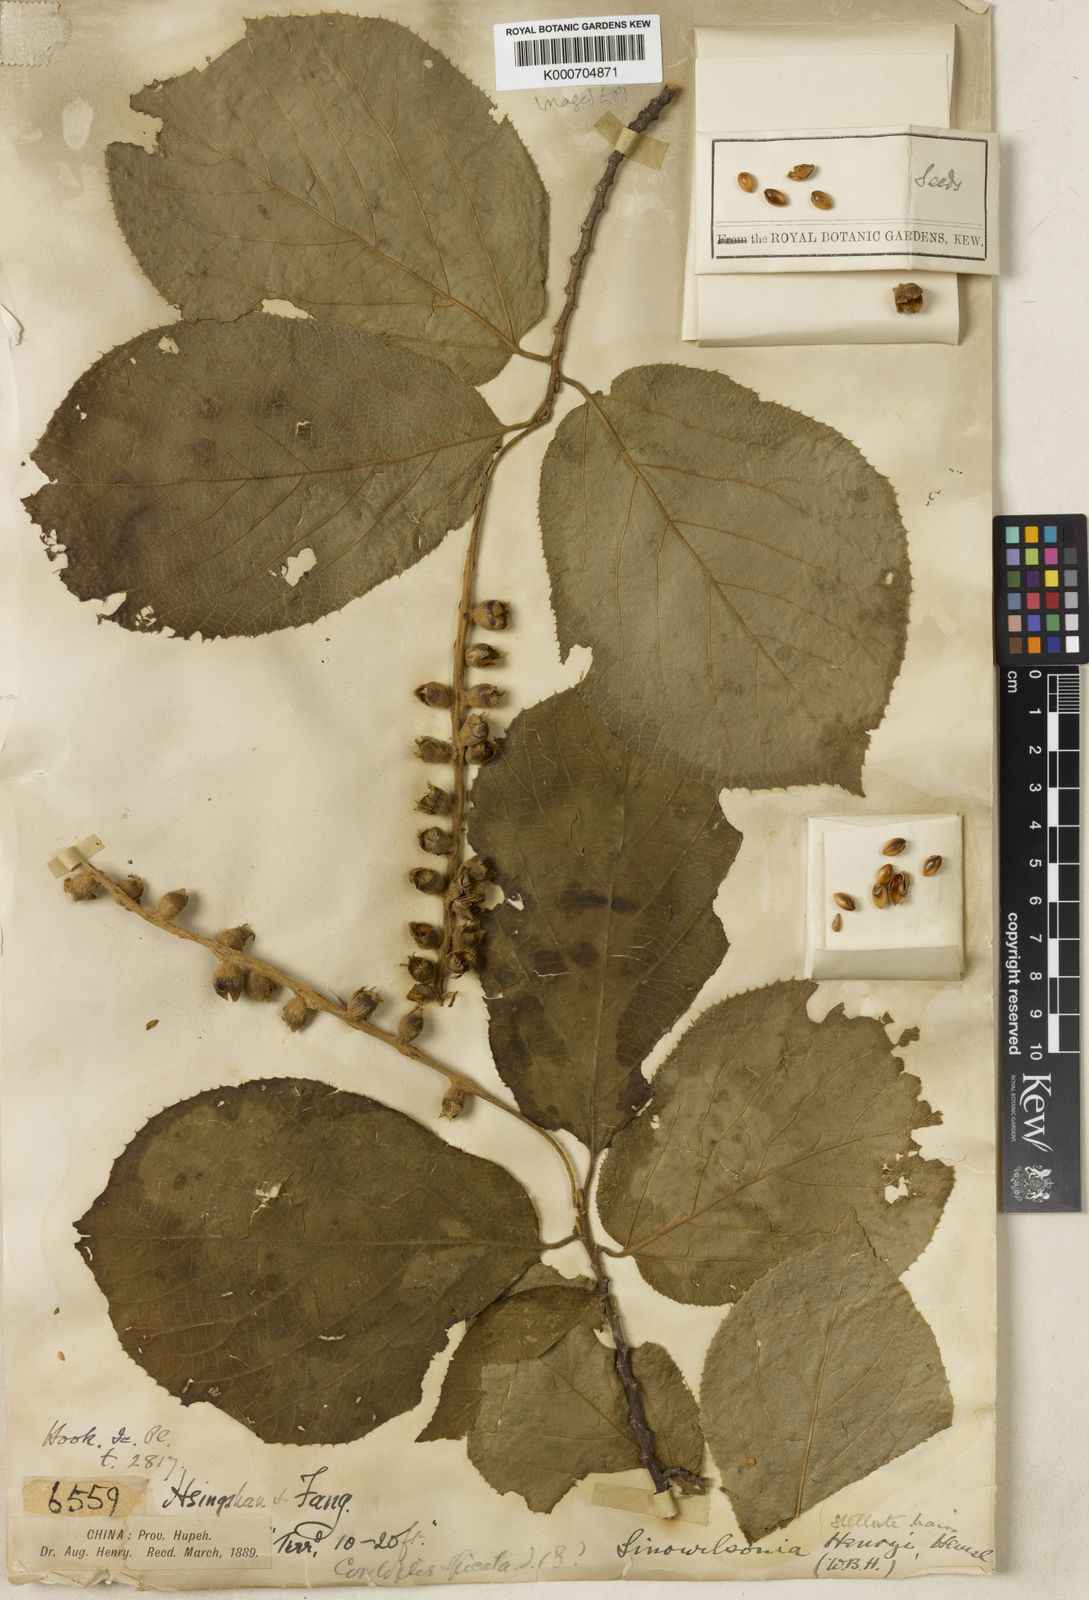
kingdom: Plantae
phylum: Tracheophyta
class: Magnoliopsida
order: Saxifragales
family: Hamamelidaceae
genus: Sinowilsonia
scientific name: Sinowilsonia henryi
